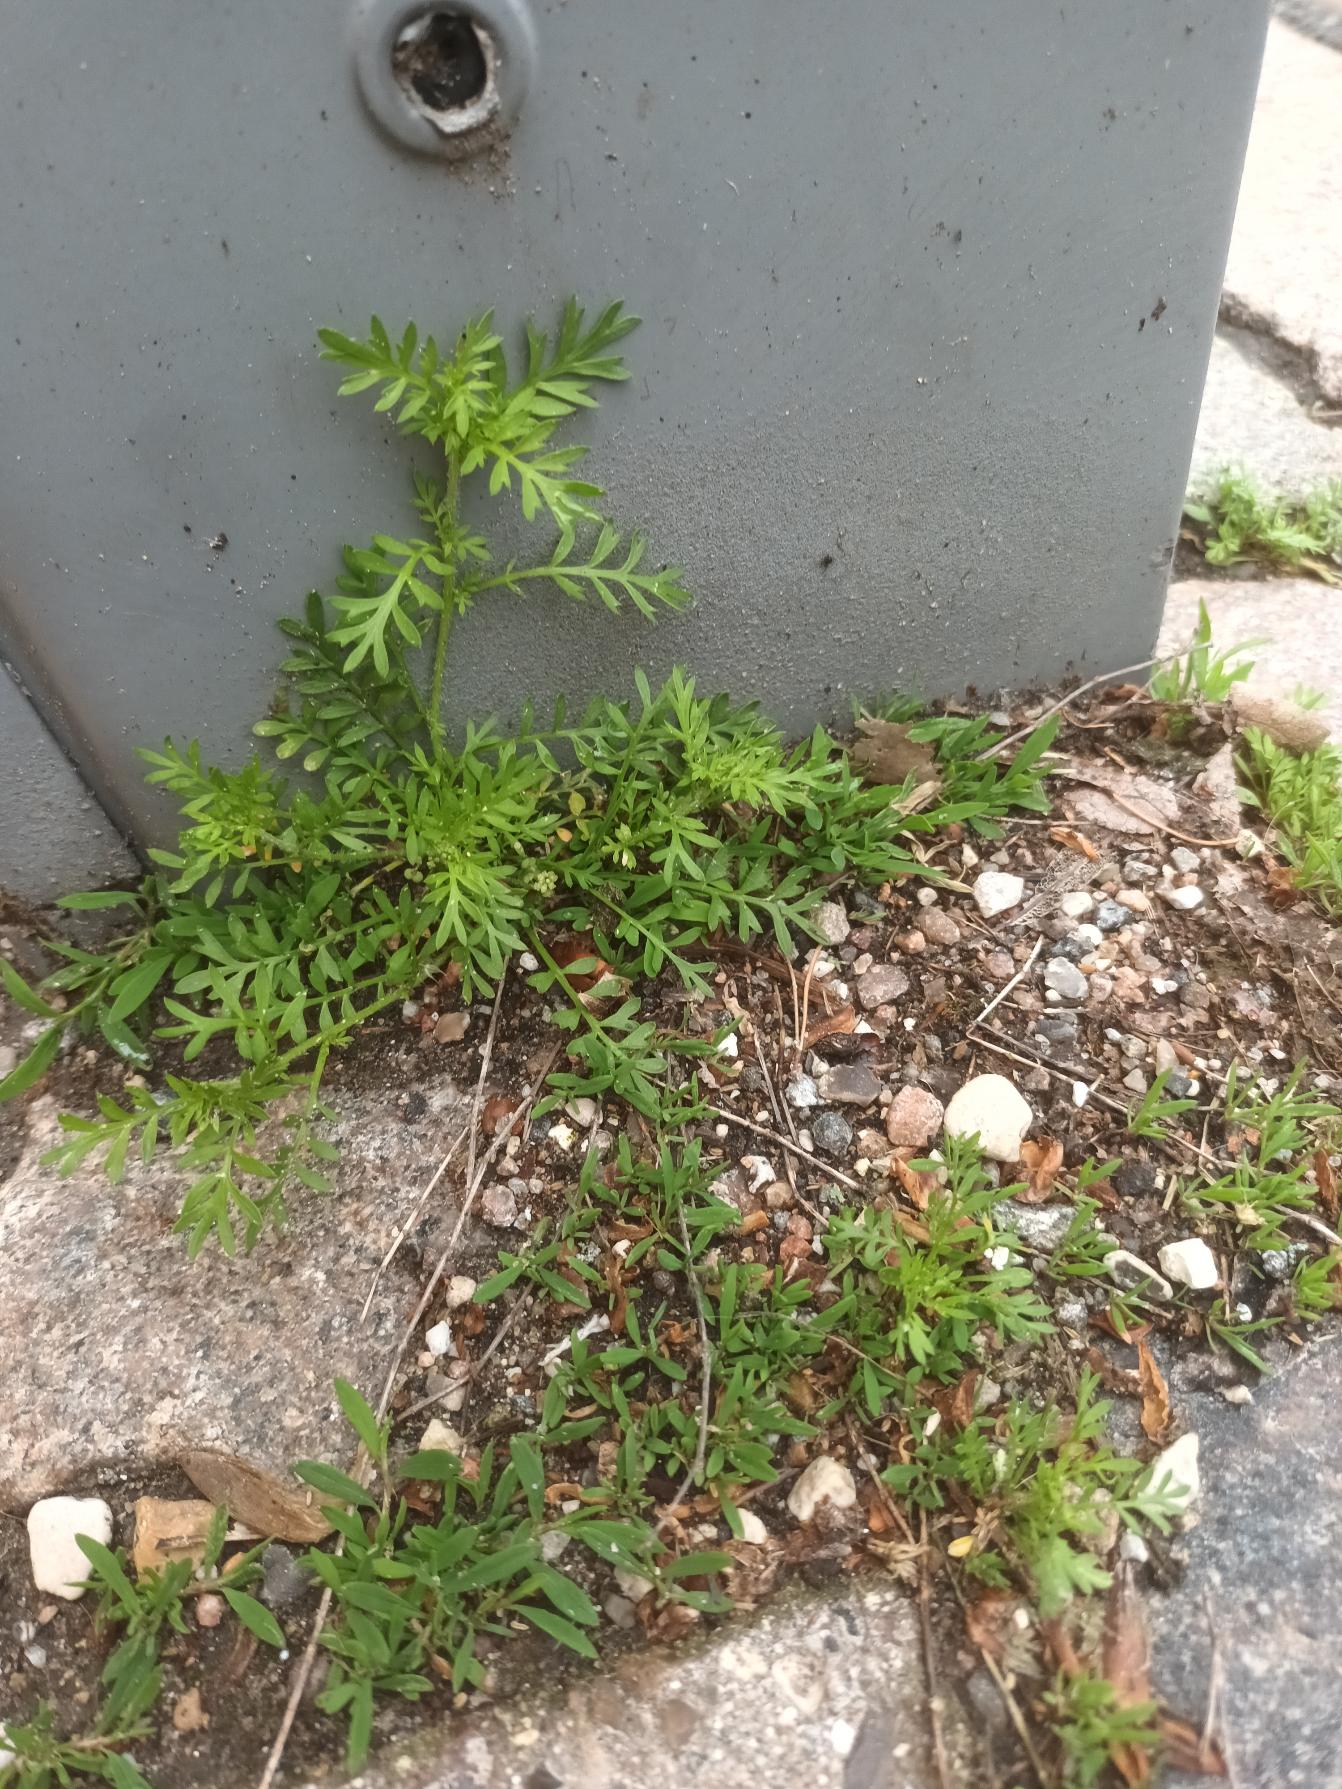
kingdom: Plantae
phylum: Tracheophyta
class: Magnoliopsida
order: Brassicales
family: Brassicaceae
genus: Lepidium
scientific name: Lepidium didymum
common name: Liden ravnefod
